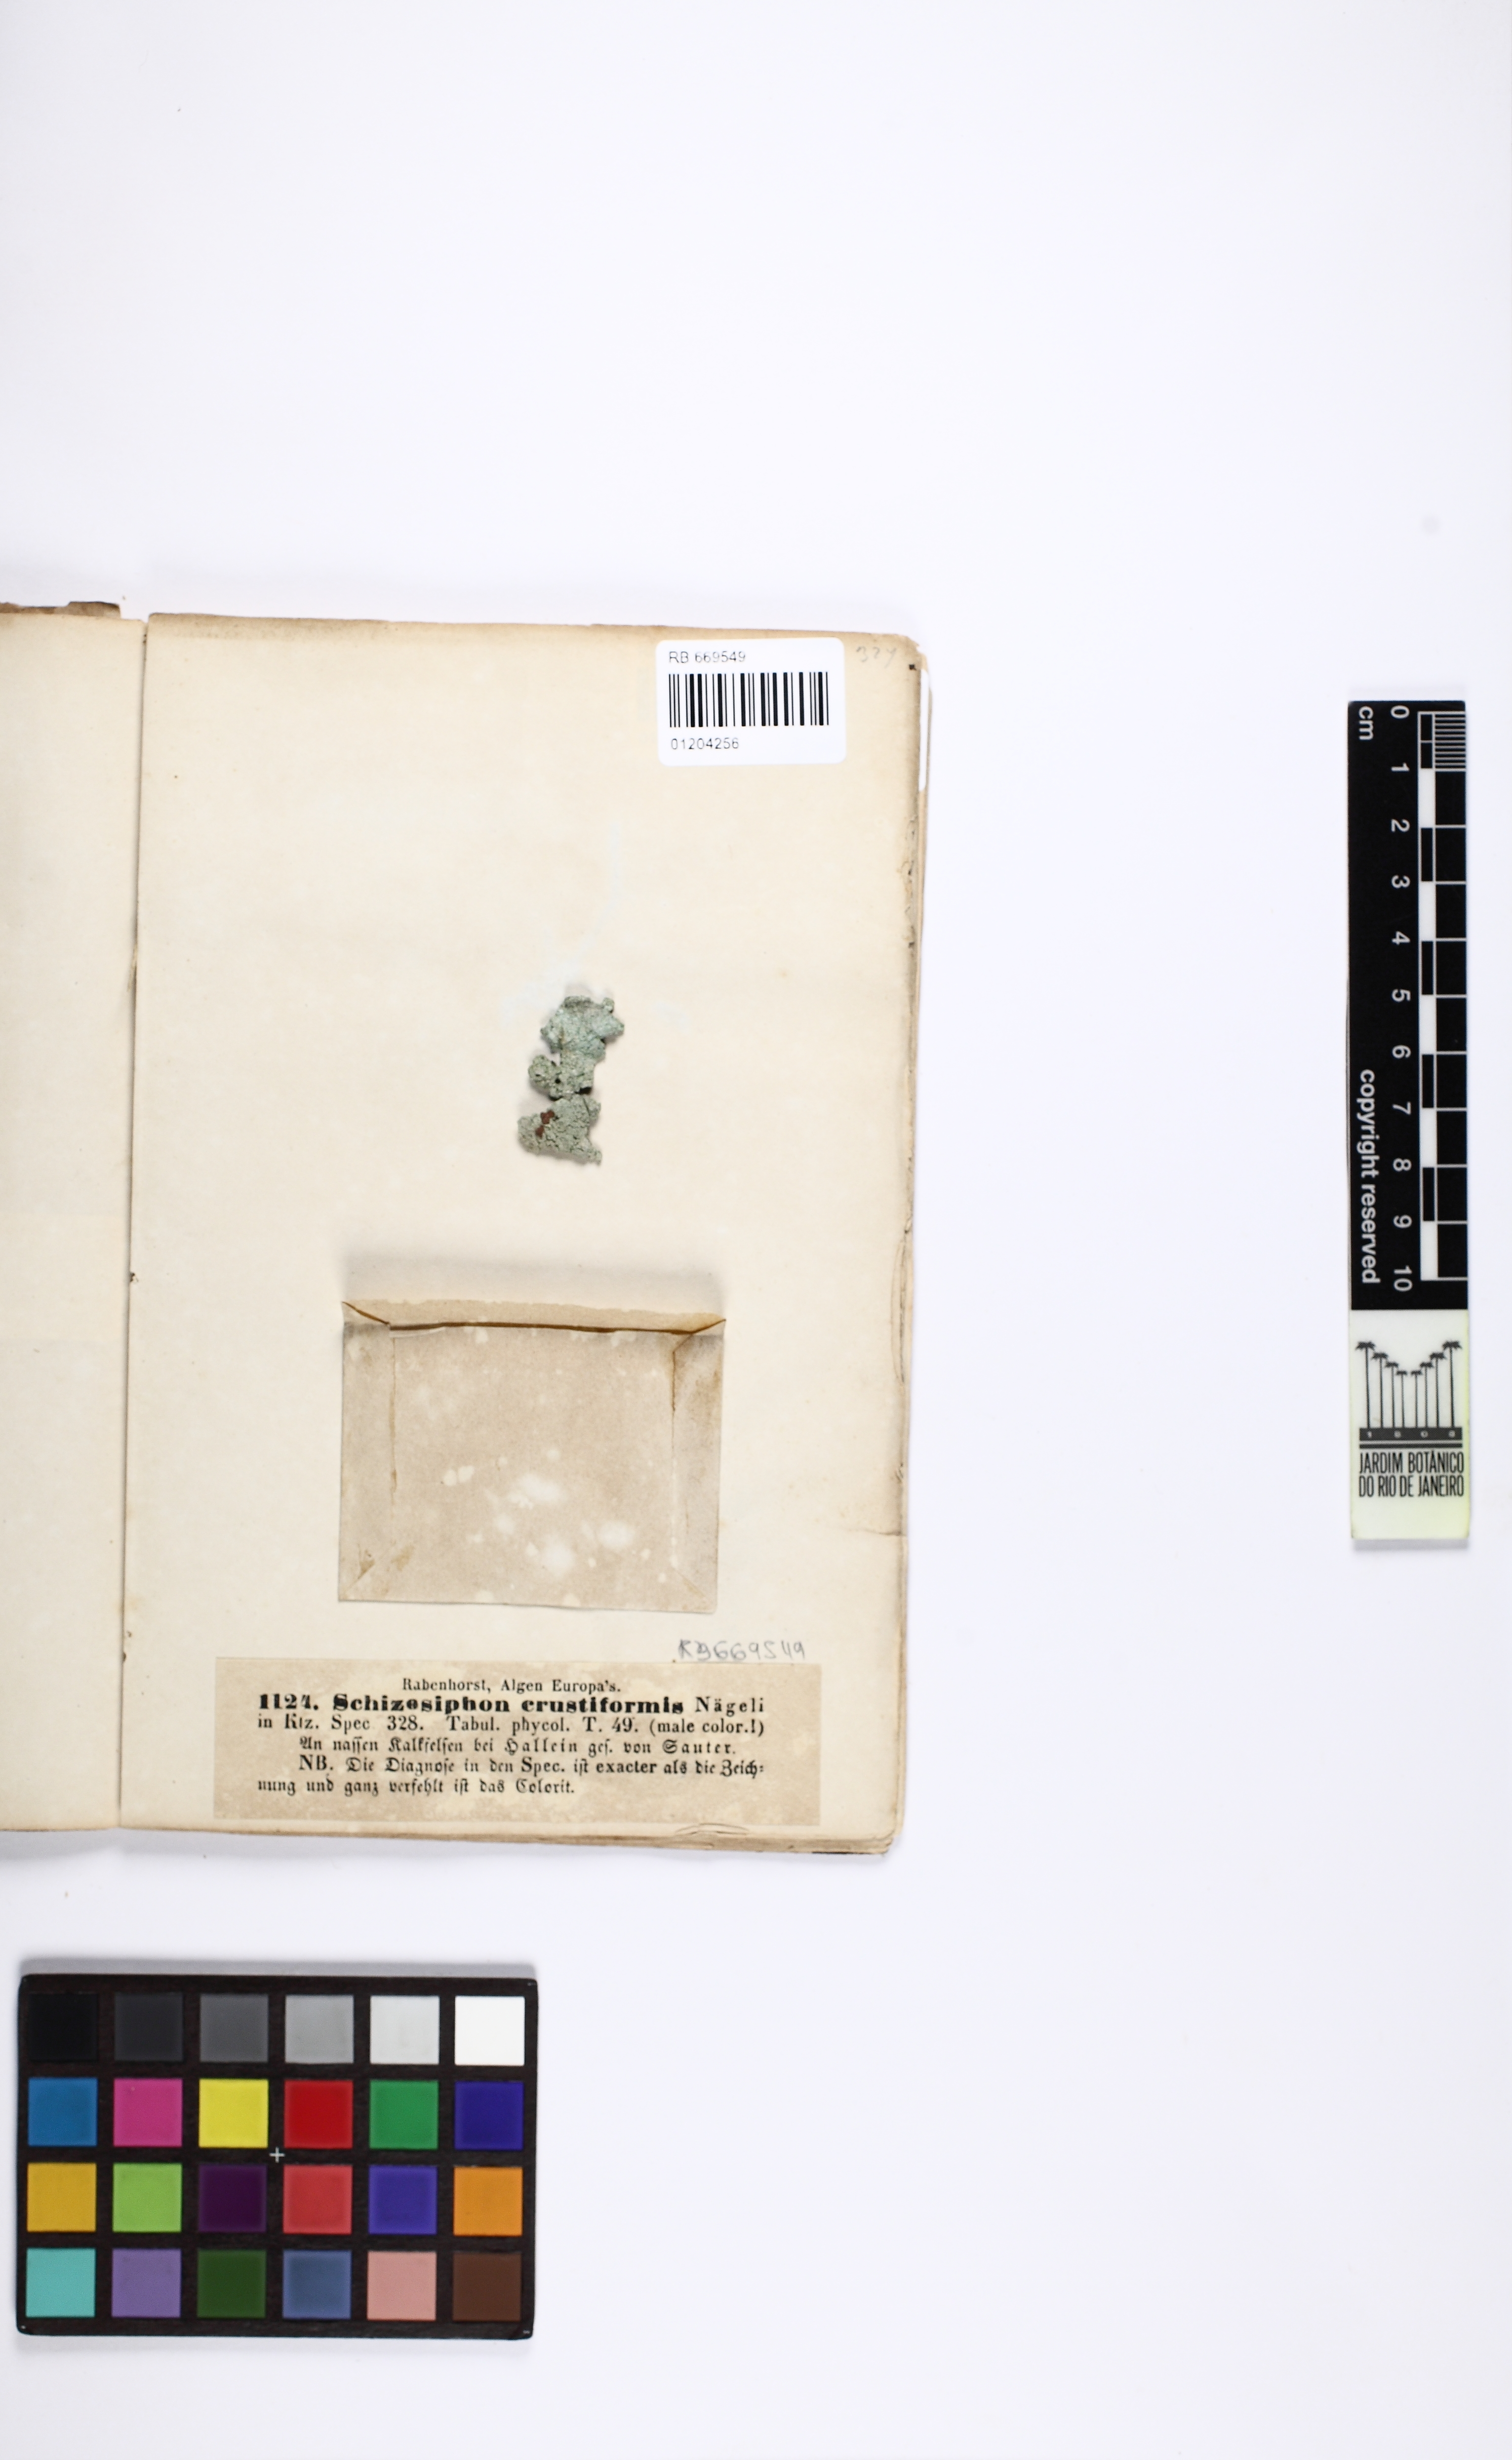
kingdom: Bacteria
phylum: Cyanobacteria
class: Cyanobacteriia
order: Cyanobacteriales
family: Rivulariaceae
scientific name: Rivulariaceae
